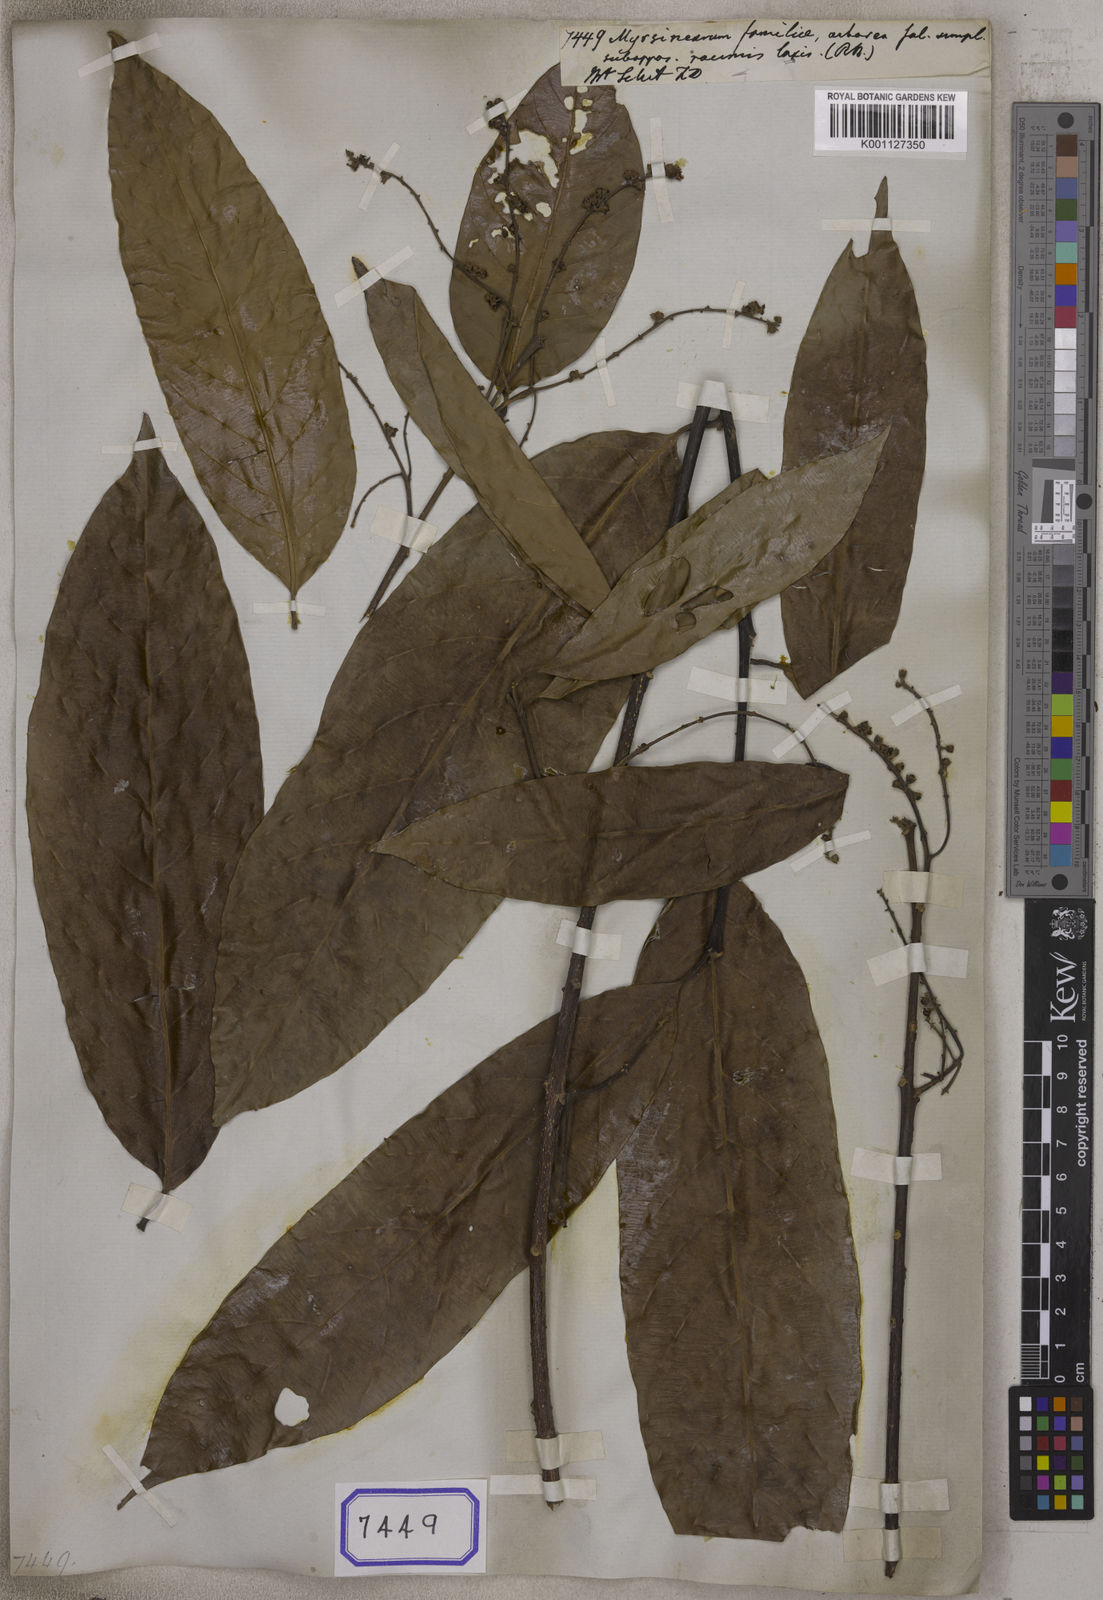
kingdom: Plantae
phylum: Tracheophyta
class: Magnoliopsida
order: Ericales
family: Primulaceae
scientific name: Primulaceae
